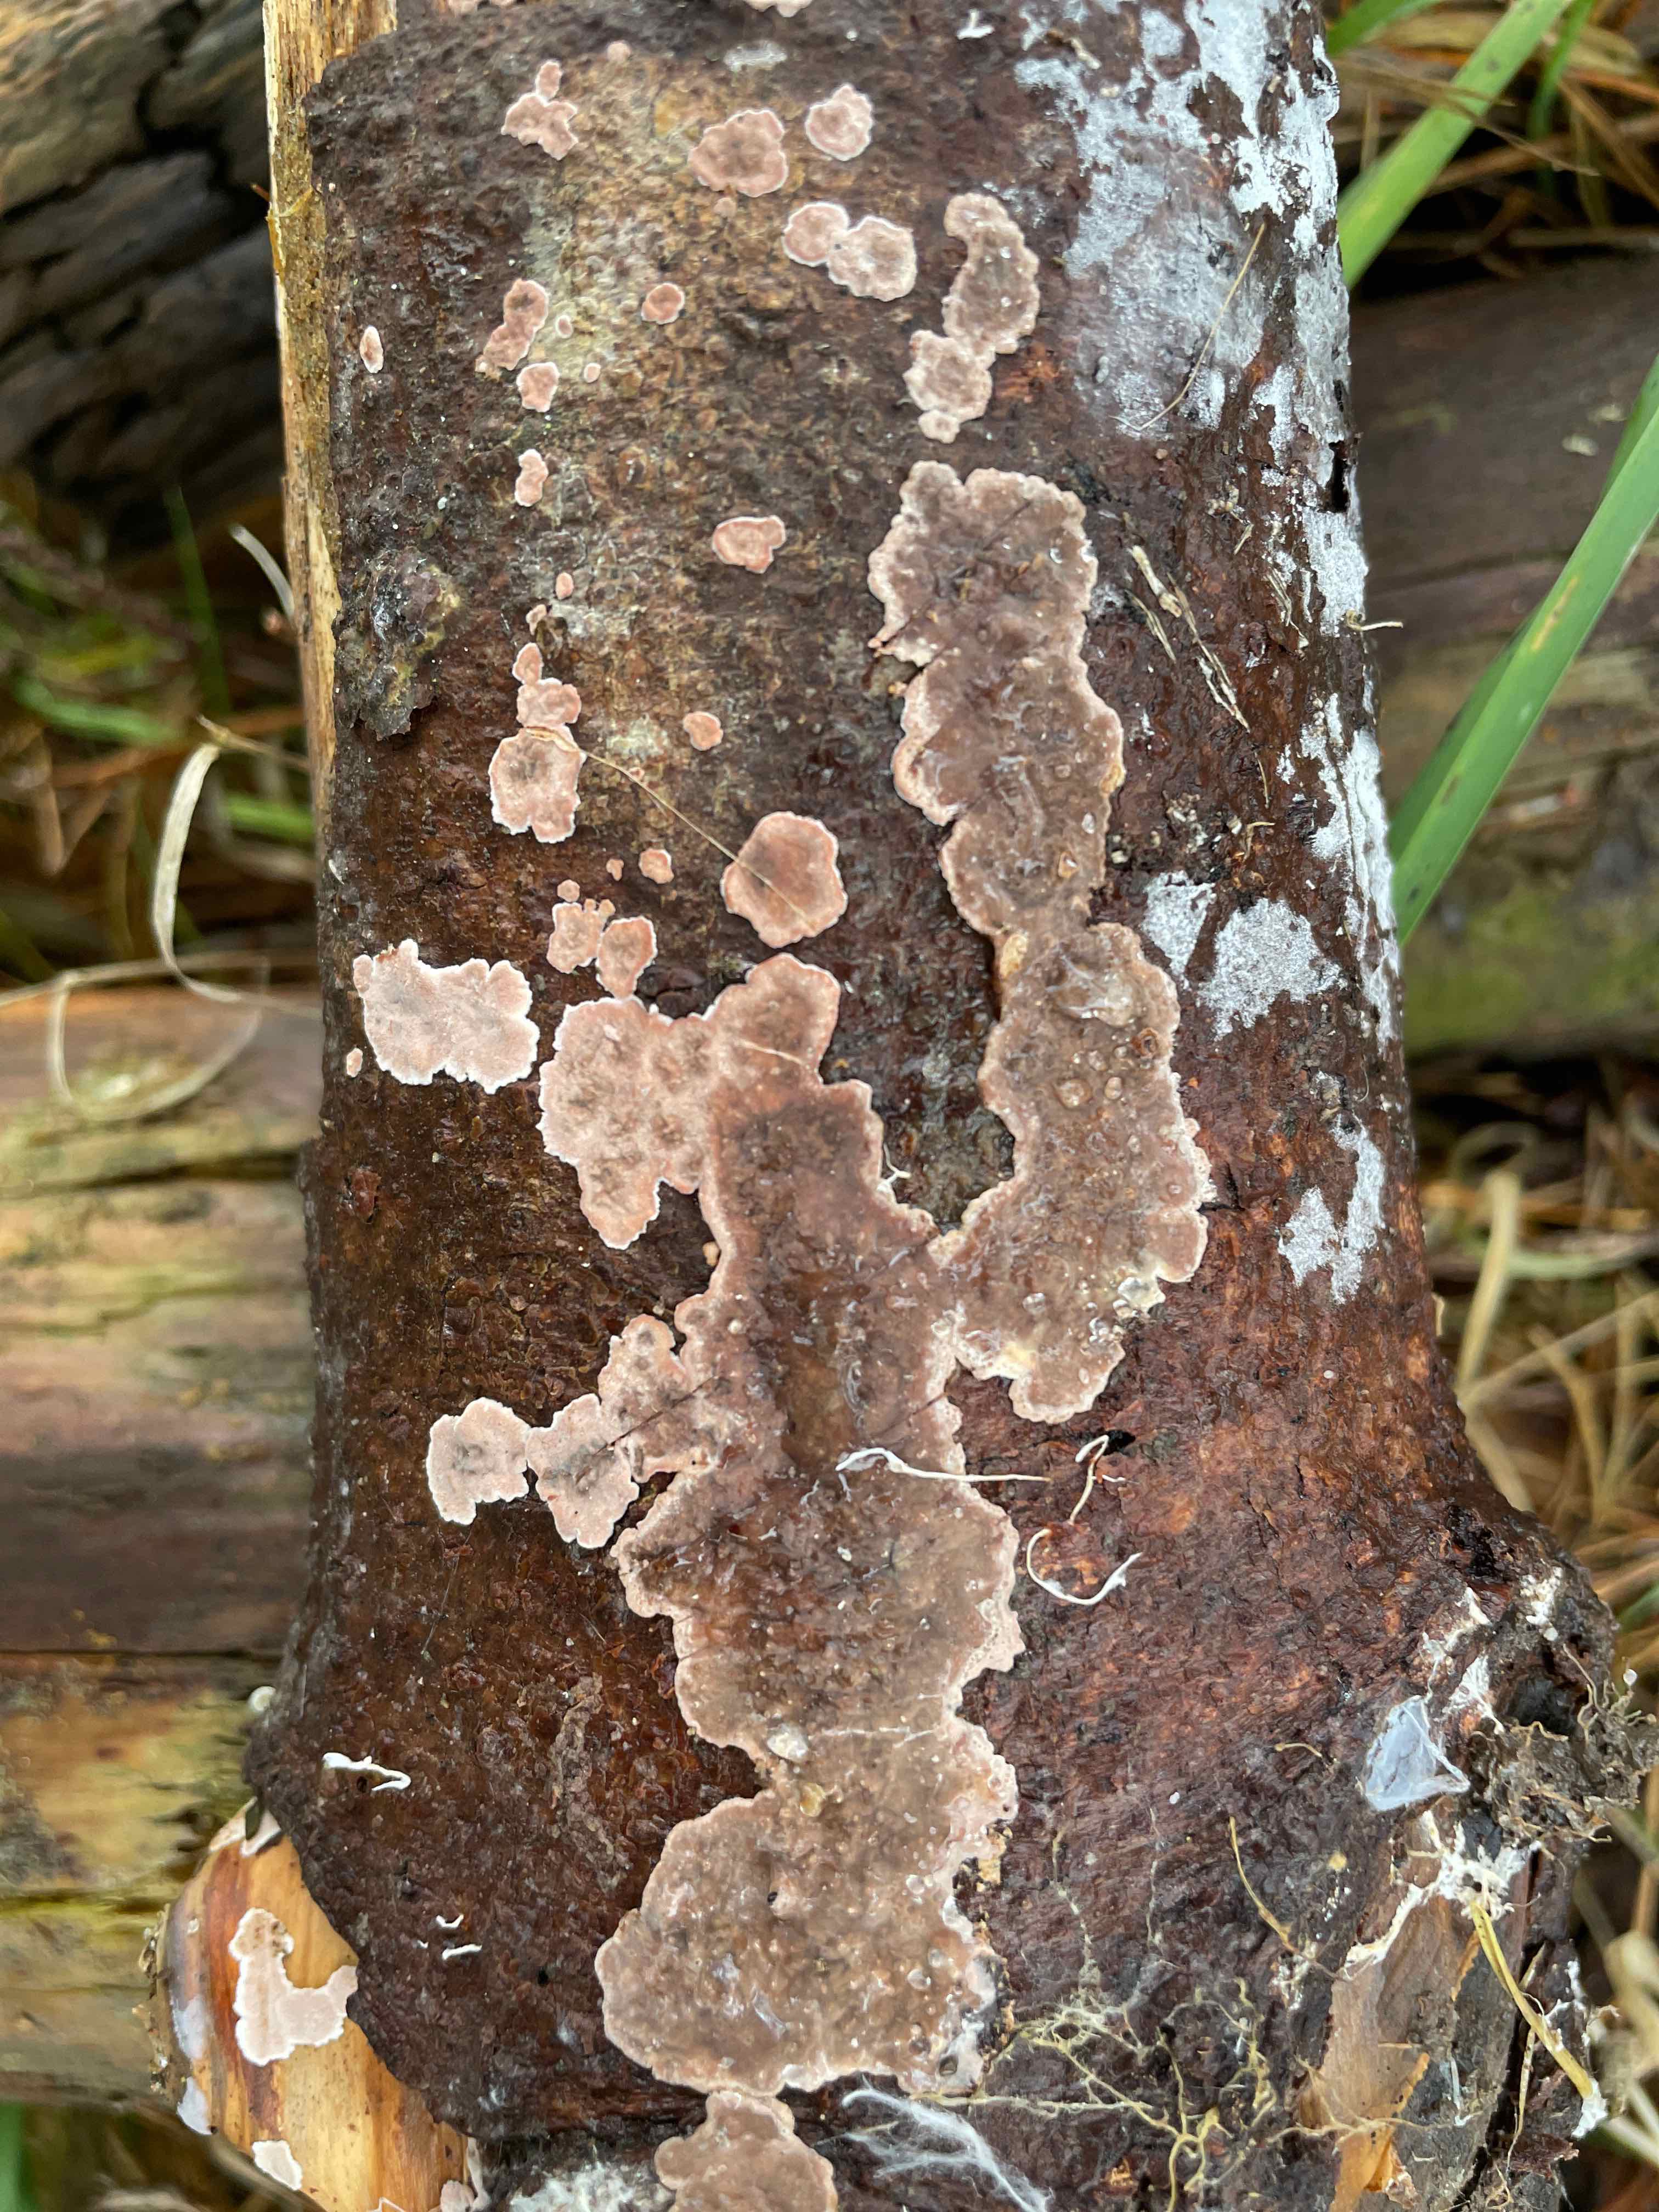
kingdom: Fungi
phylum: Basidiomycota
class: Agaricomycetes
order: Russulales
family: Echinodontiaceae
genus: Amylostereum
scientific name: Amylostereum chailletii
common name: gran-lædersvamp
